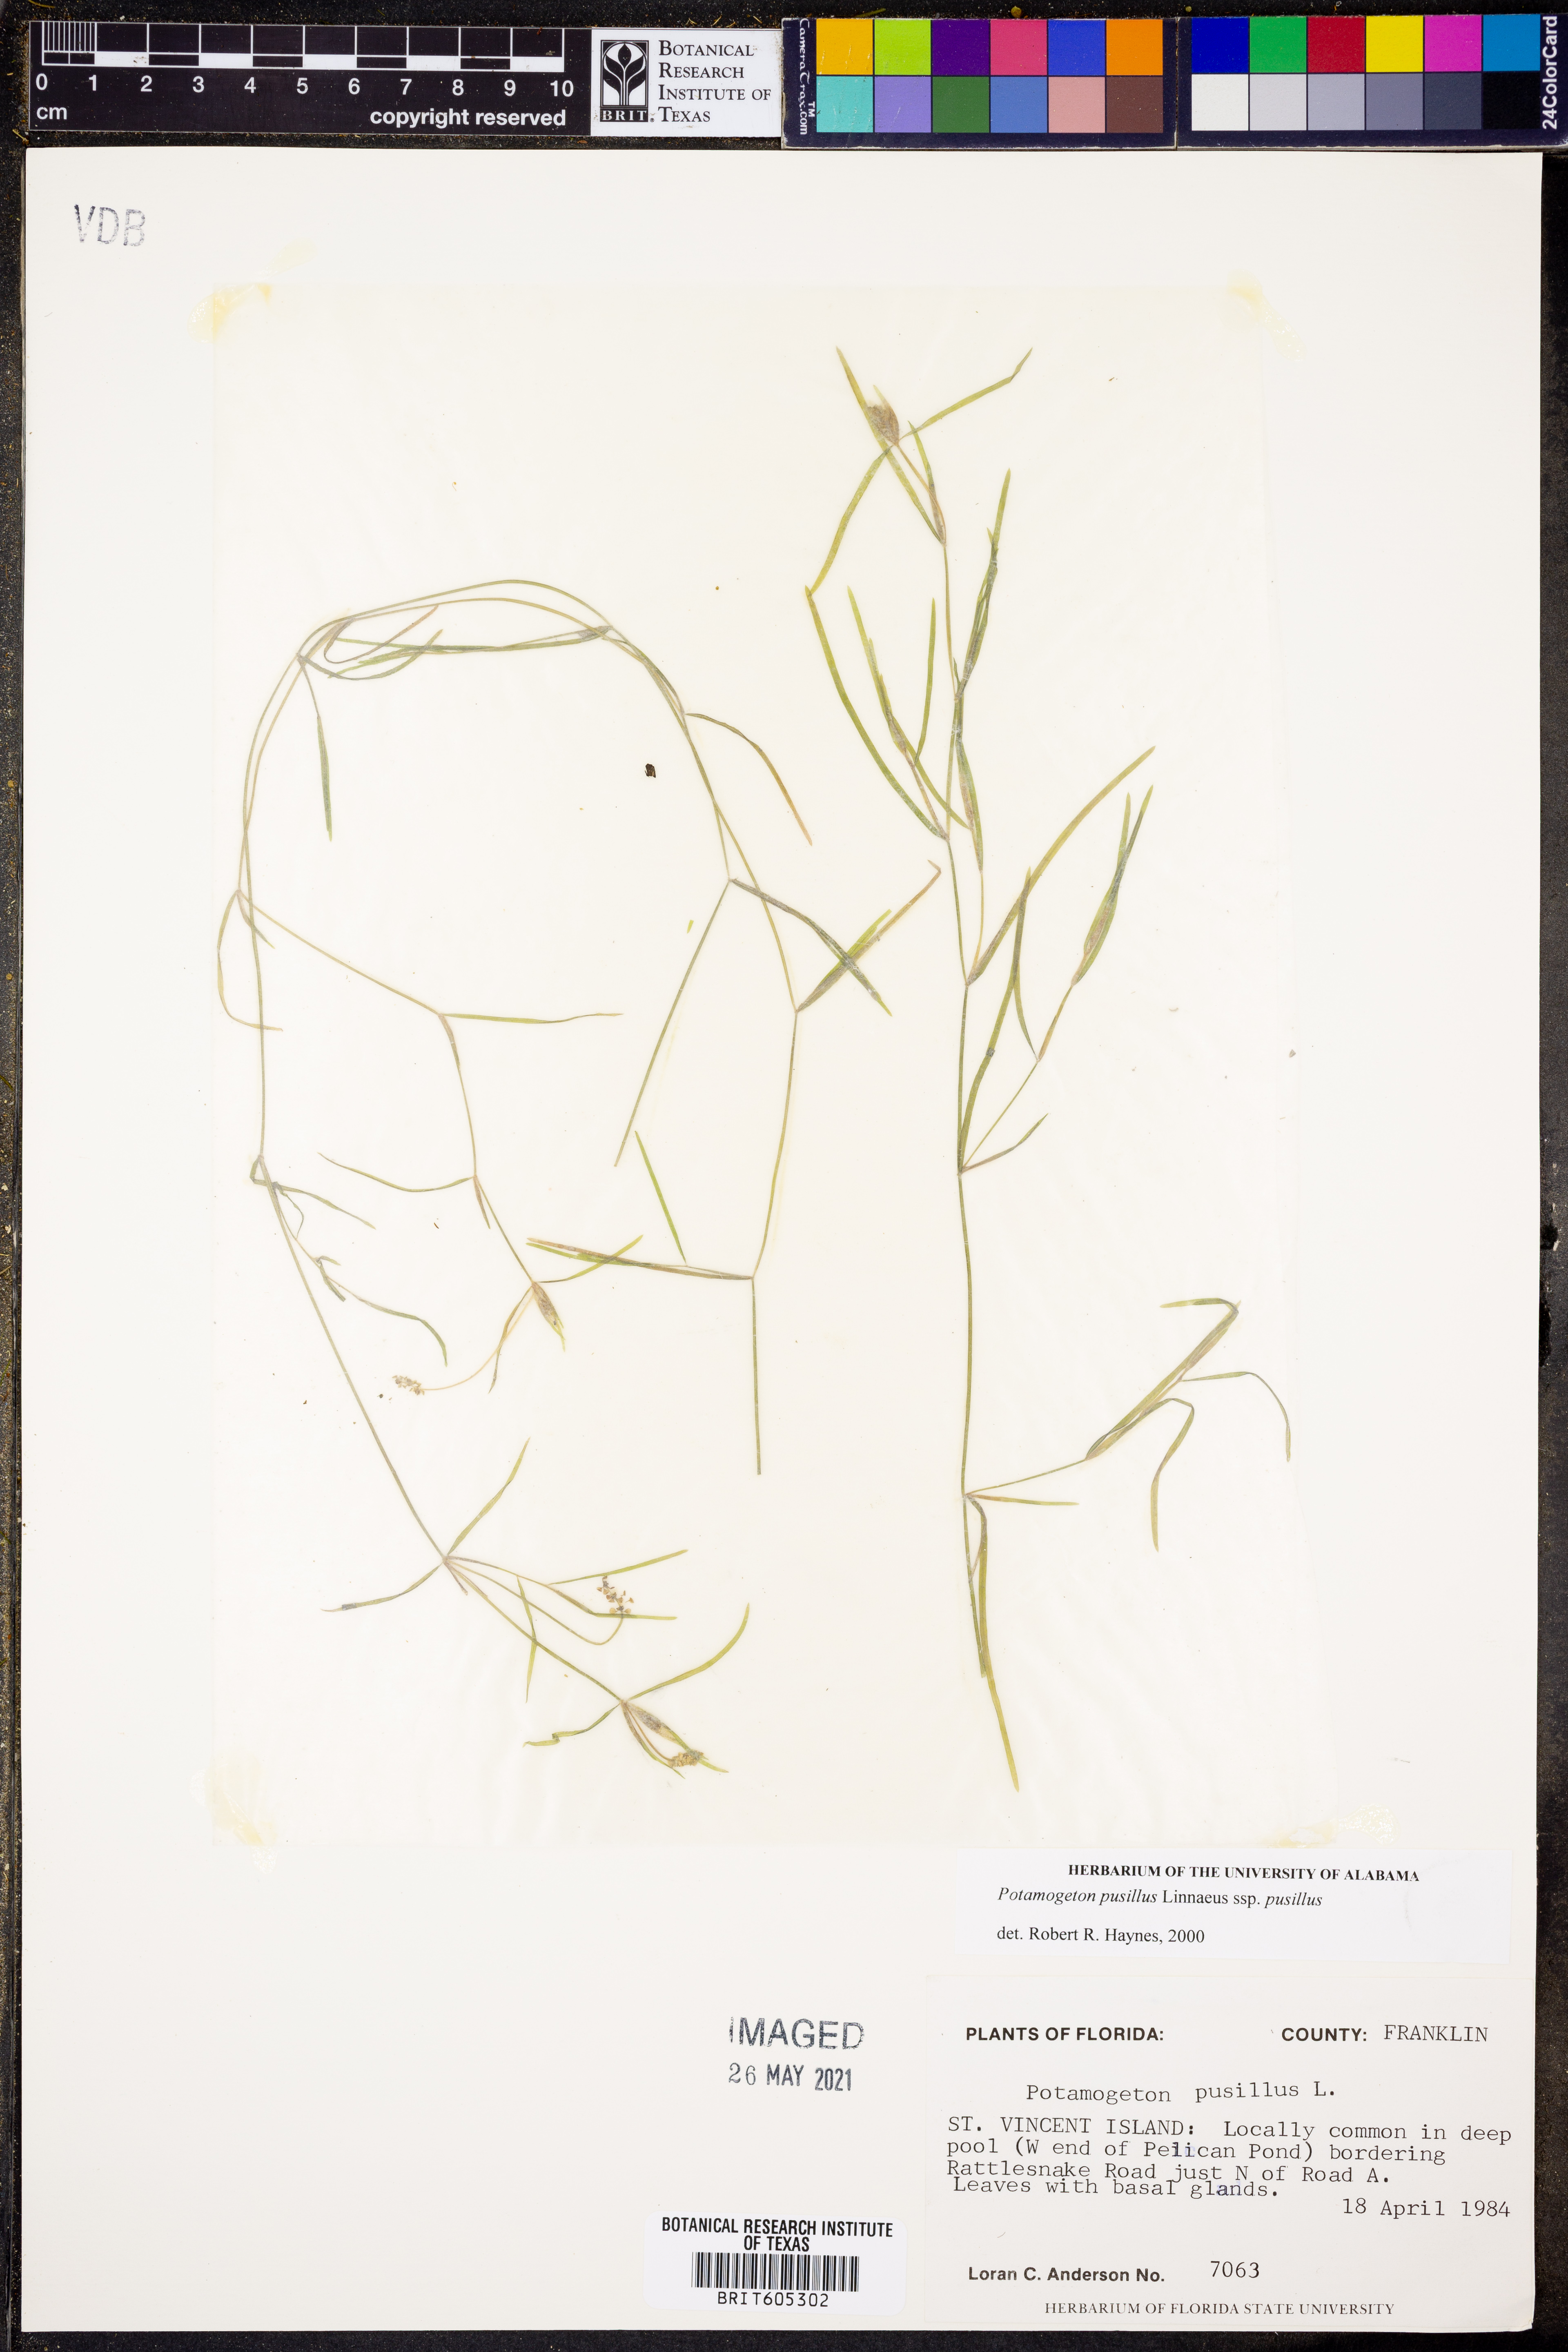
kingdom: Plantae
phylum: Tracheophyta
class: Liliopsida
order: Alismatales
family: Potamogetonaceae
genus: Potamogeton
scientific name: Potamogeton pusillus
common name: Lesser pondweed
